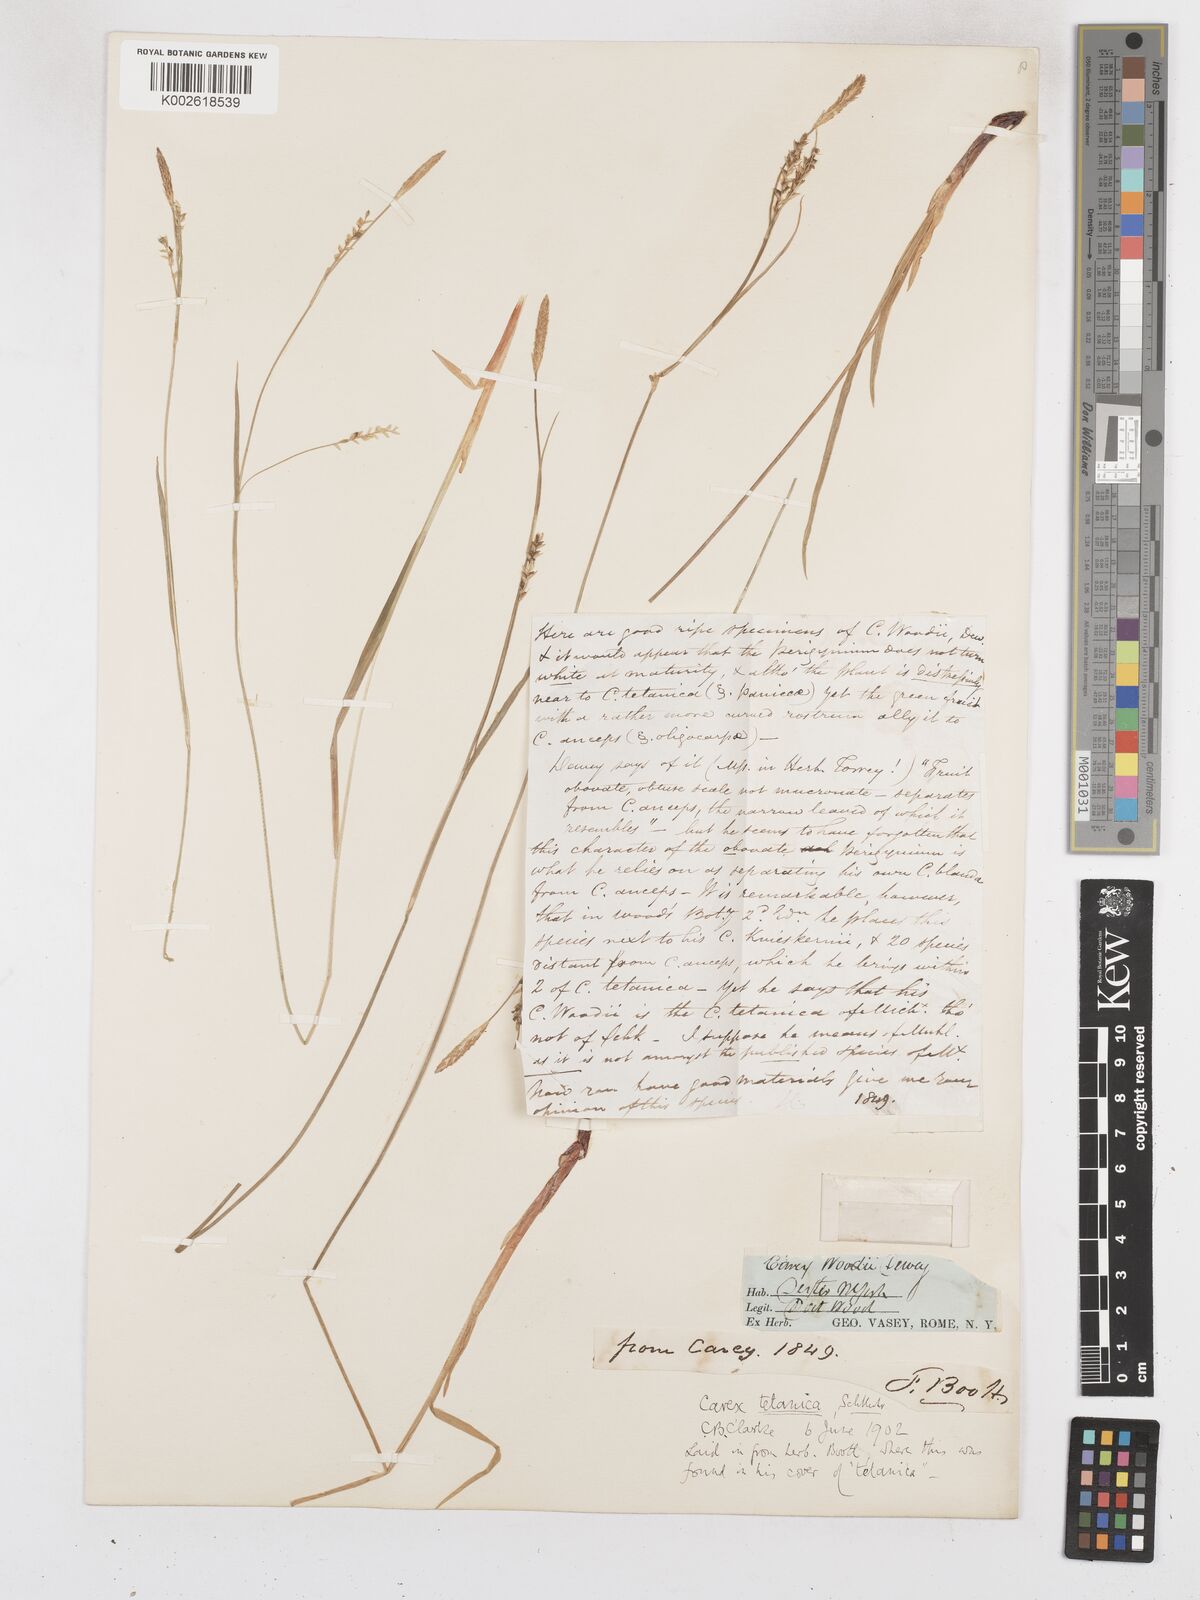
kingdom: Plantae
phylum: Tracheophyta
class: Liliopsida
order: Poales
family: Cyperaceae
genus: Carex
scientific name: Carex meadii
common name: Mead's sedge
